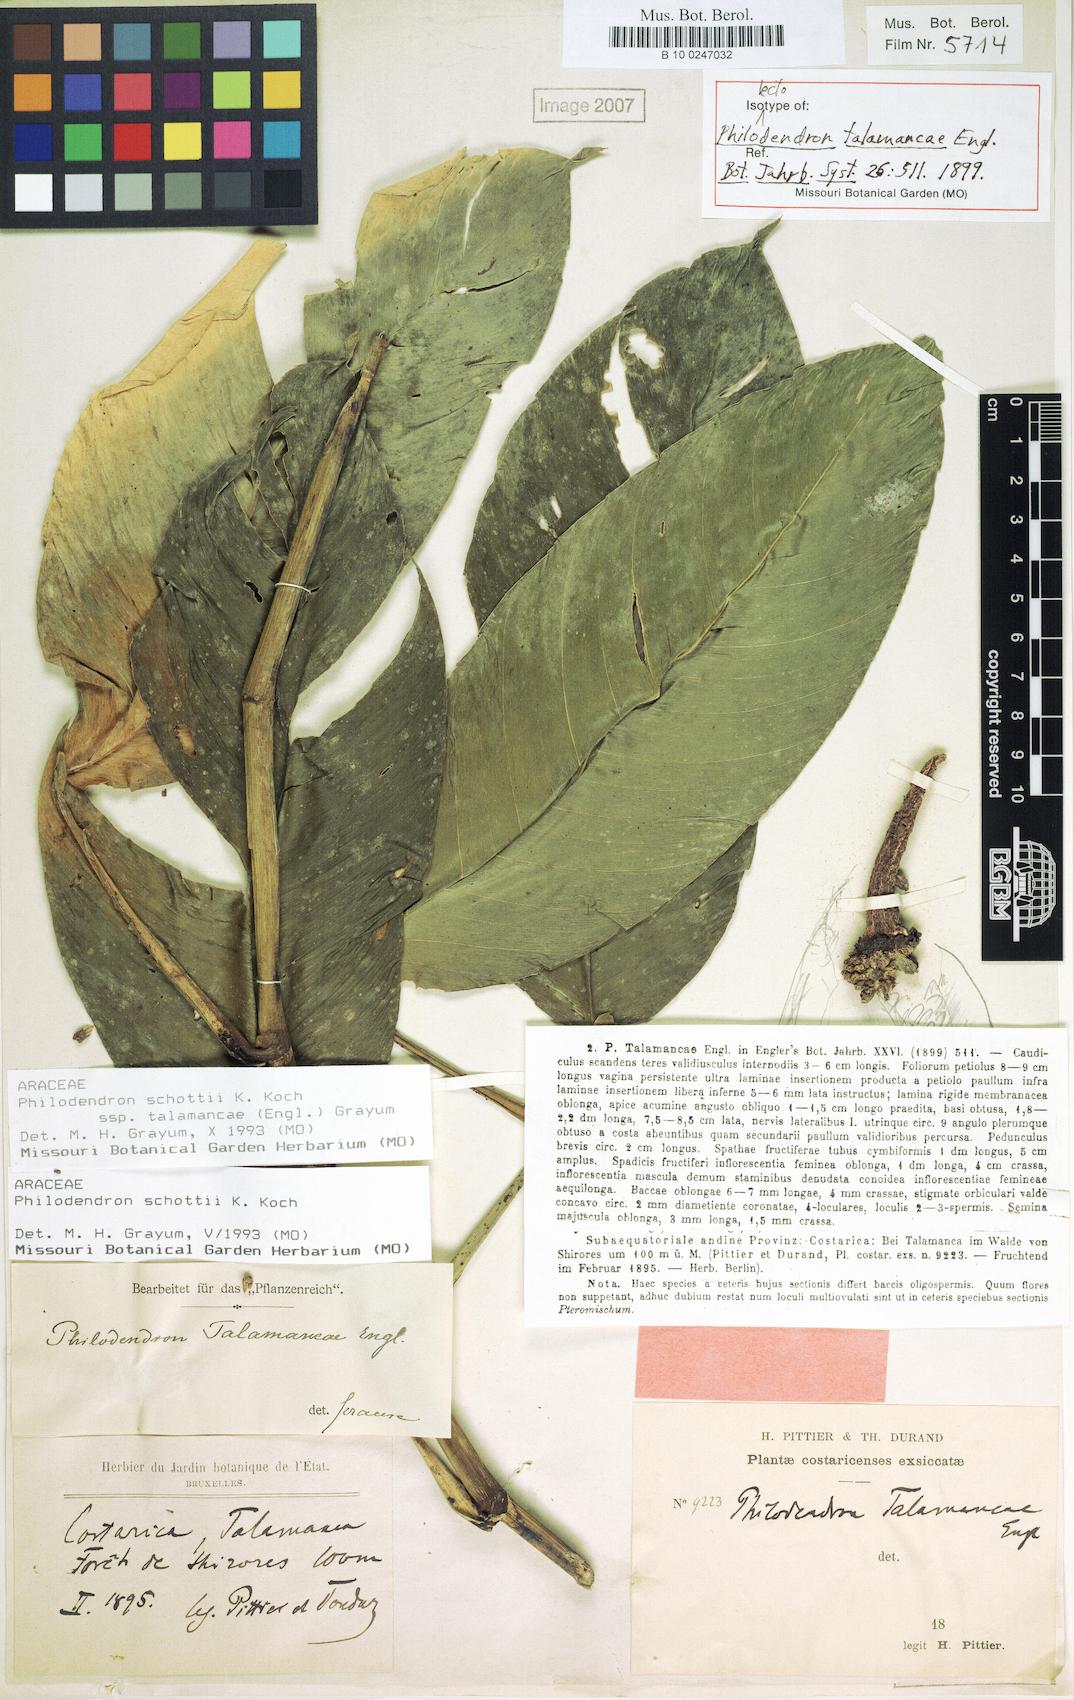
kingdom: Plantae
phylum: Tracheophyta
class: Liliopsida
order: Alismatales
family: Araceae
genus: Philodendron
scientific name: Philodendron schottii
